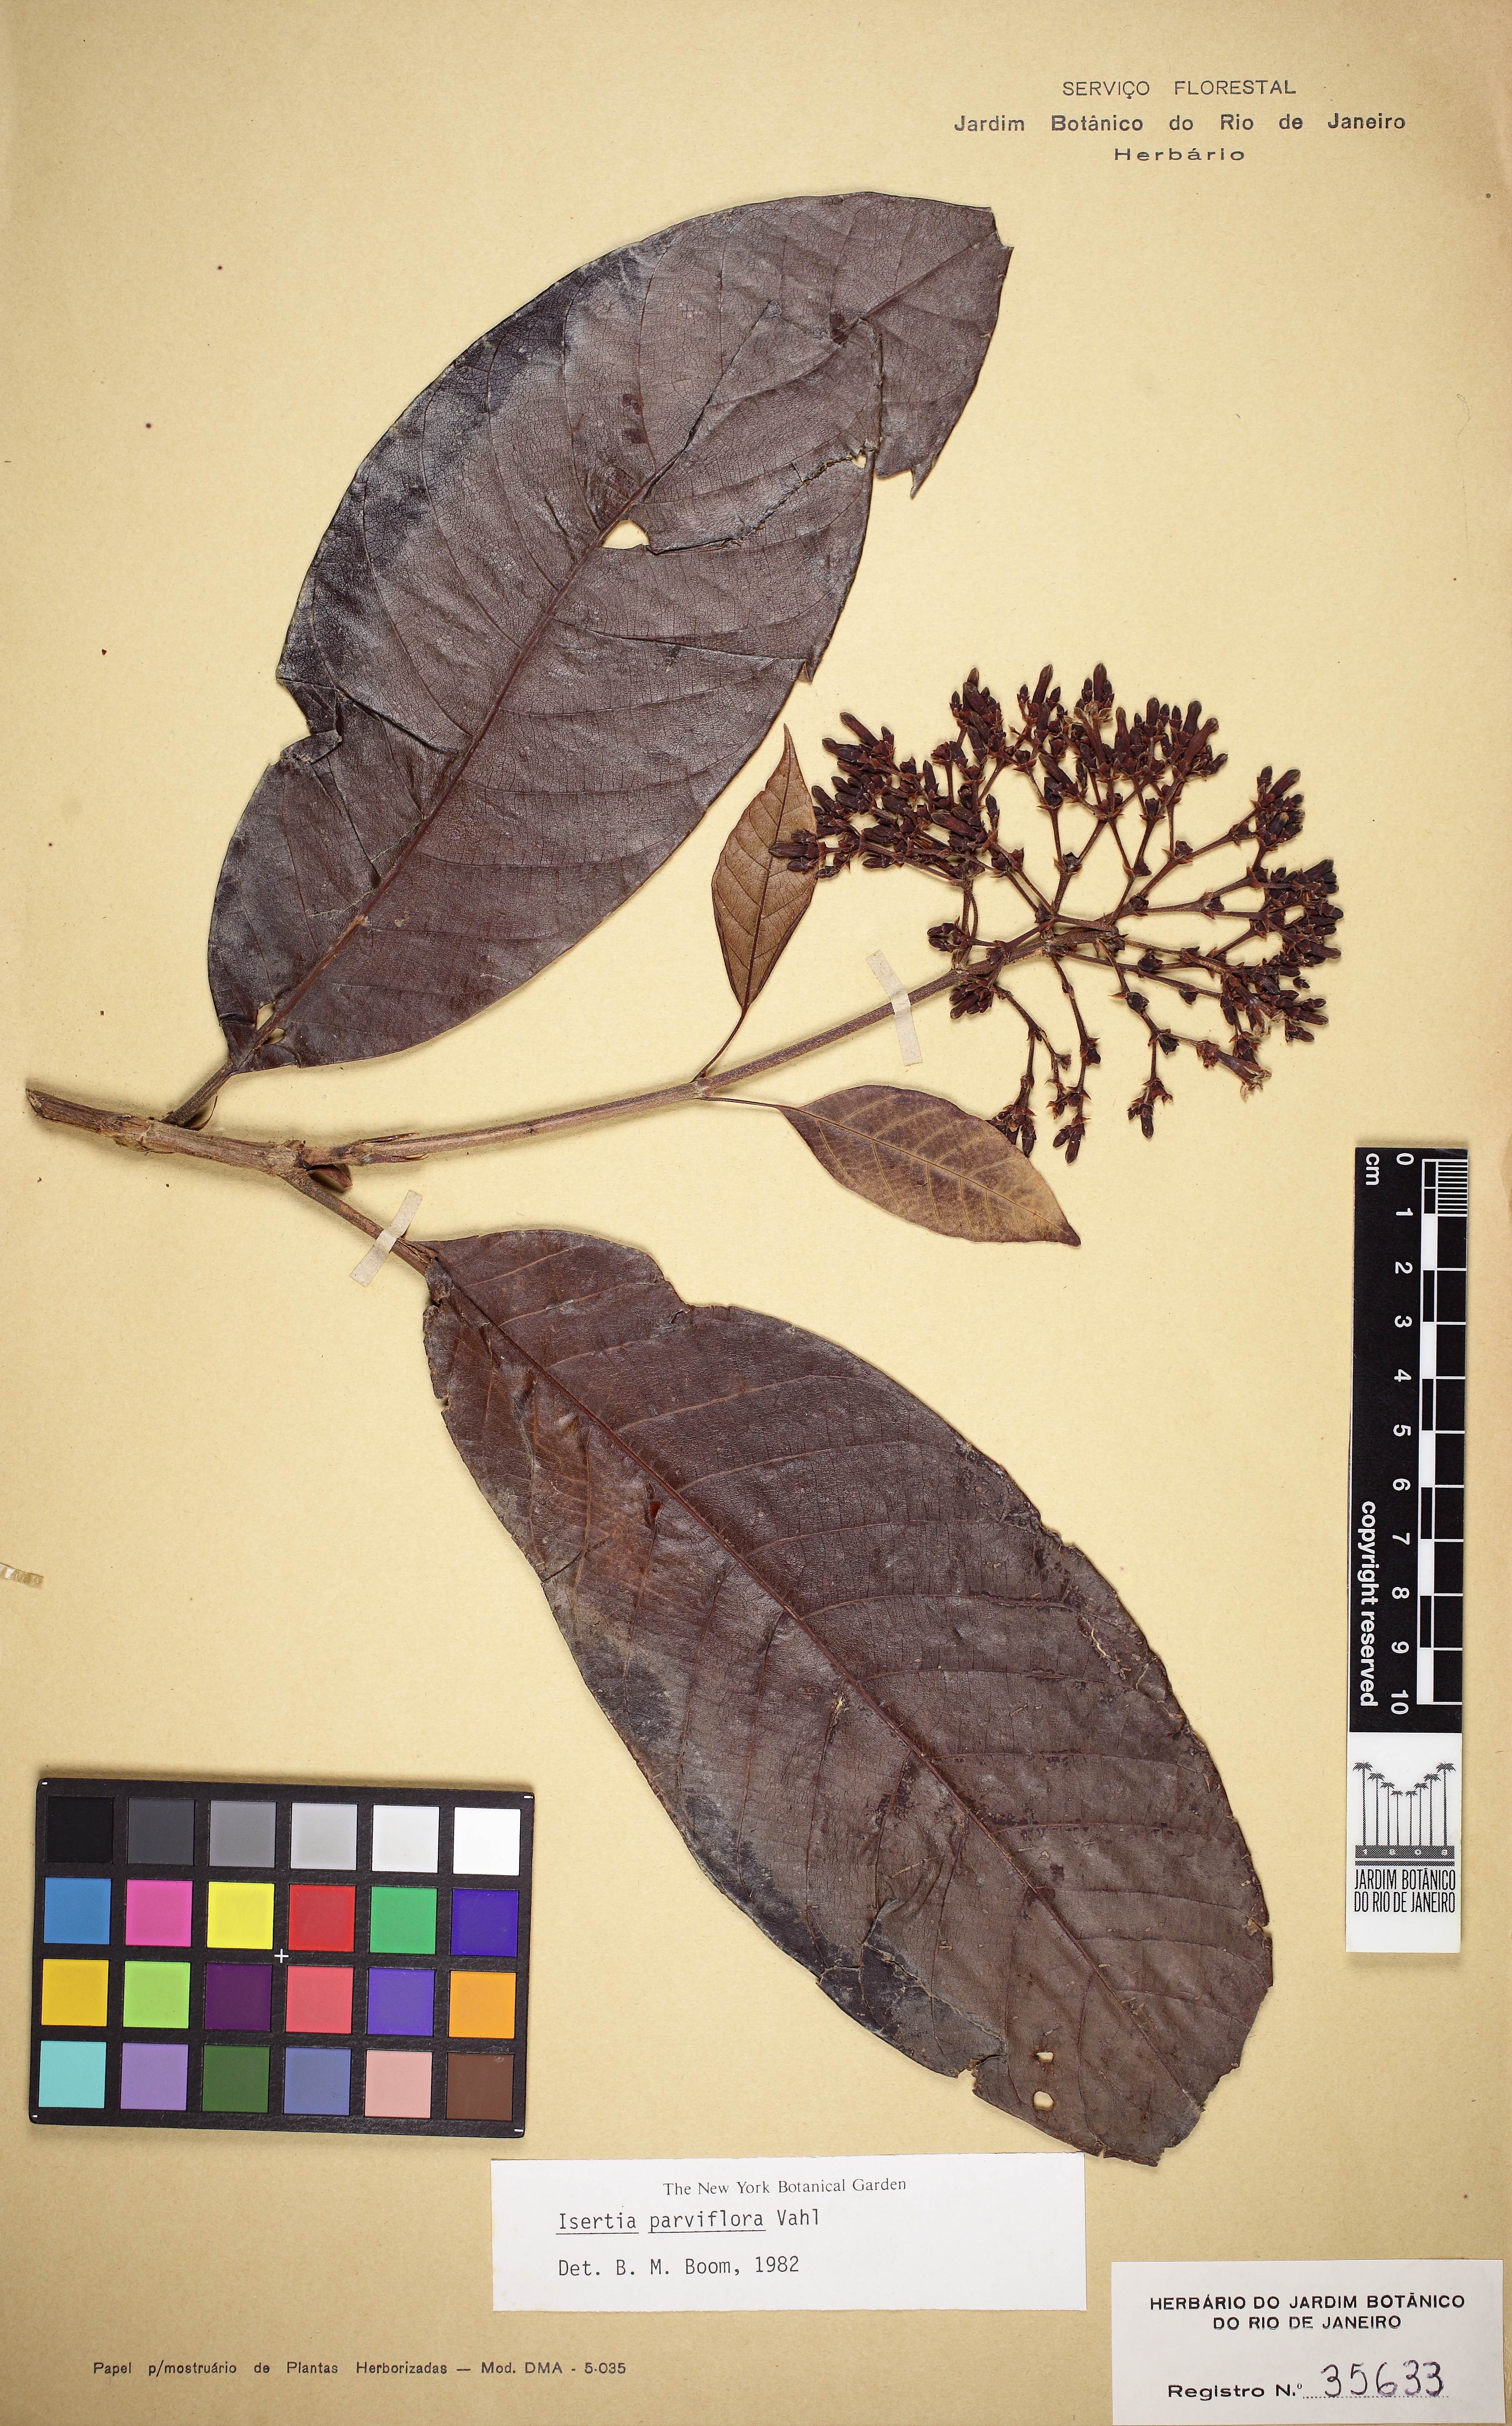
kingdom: Plantae
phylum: Tracheophyta
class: Magnoliopsida
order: Gentianales
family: Rubiaceae
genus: Isertia
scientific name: Isertia parviflora
